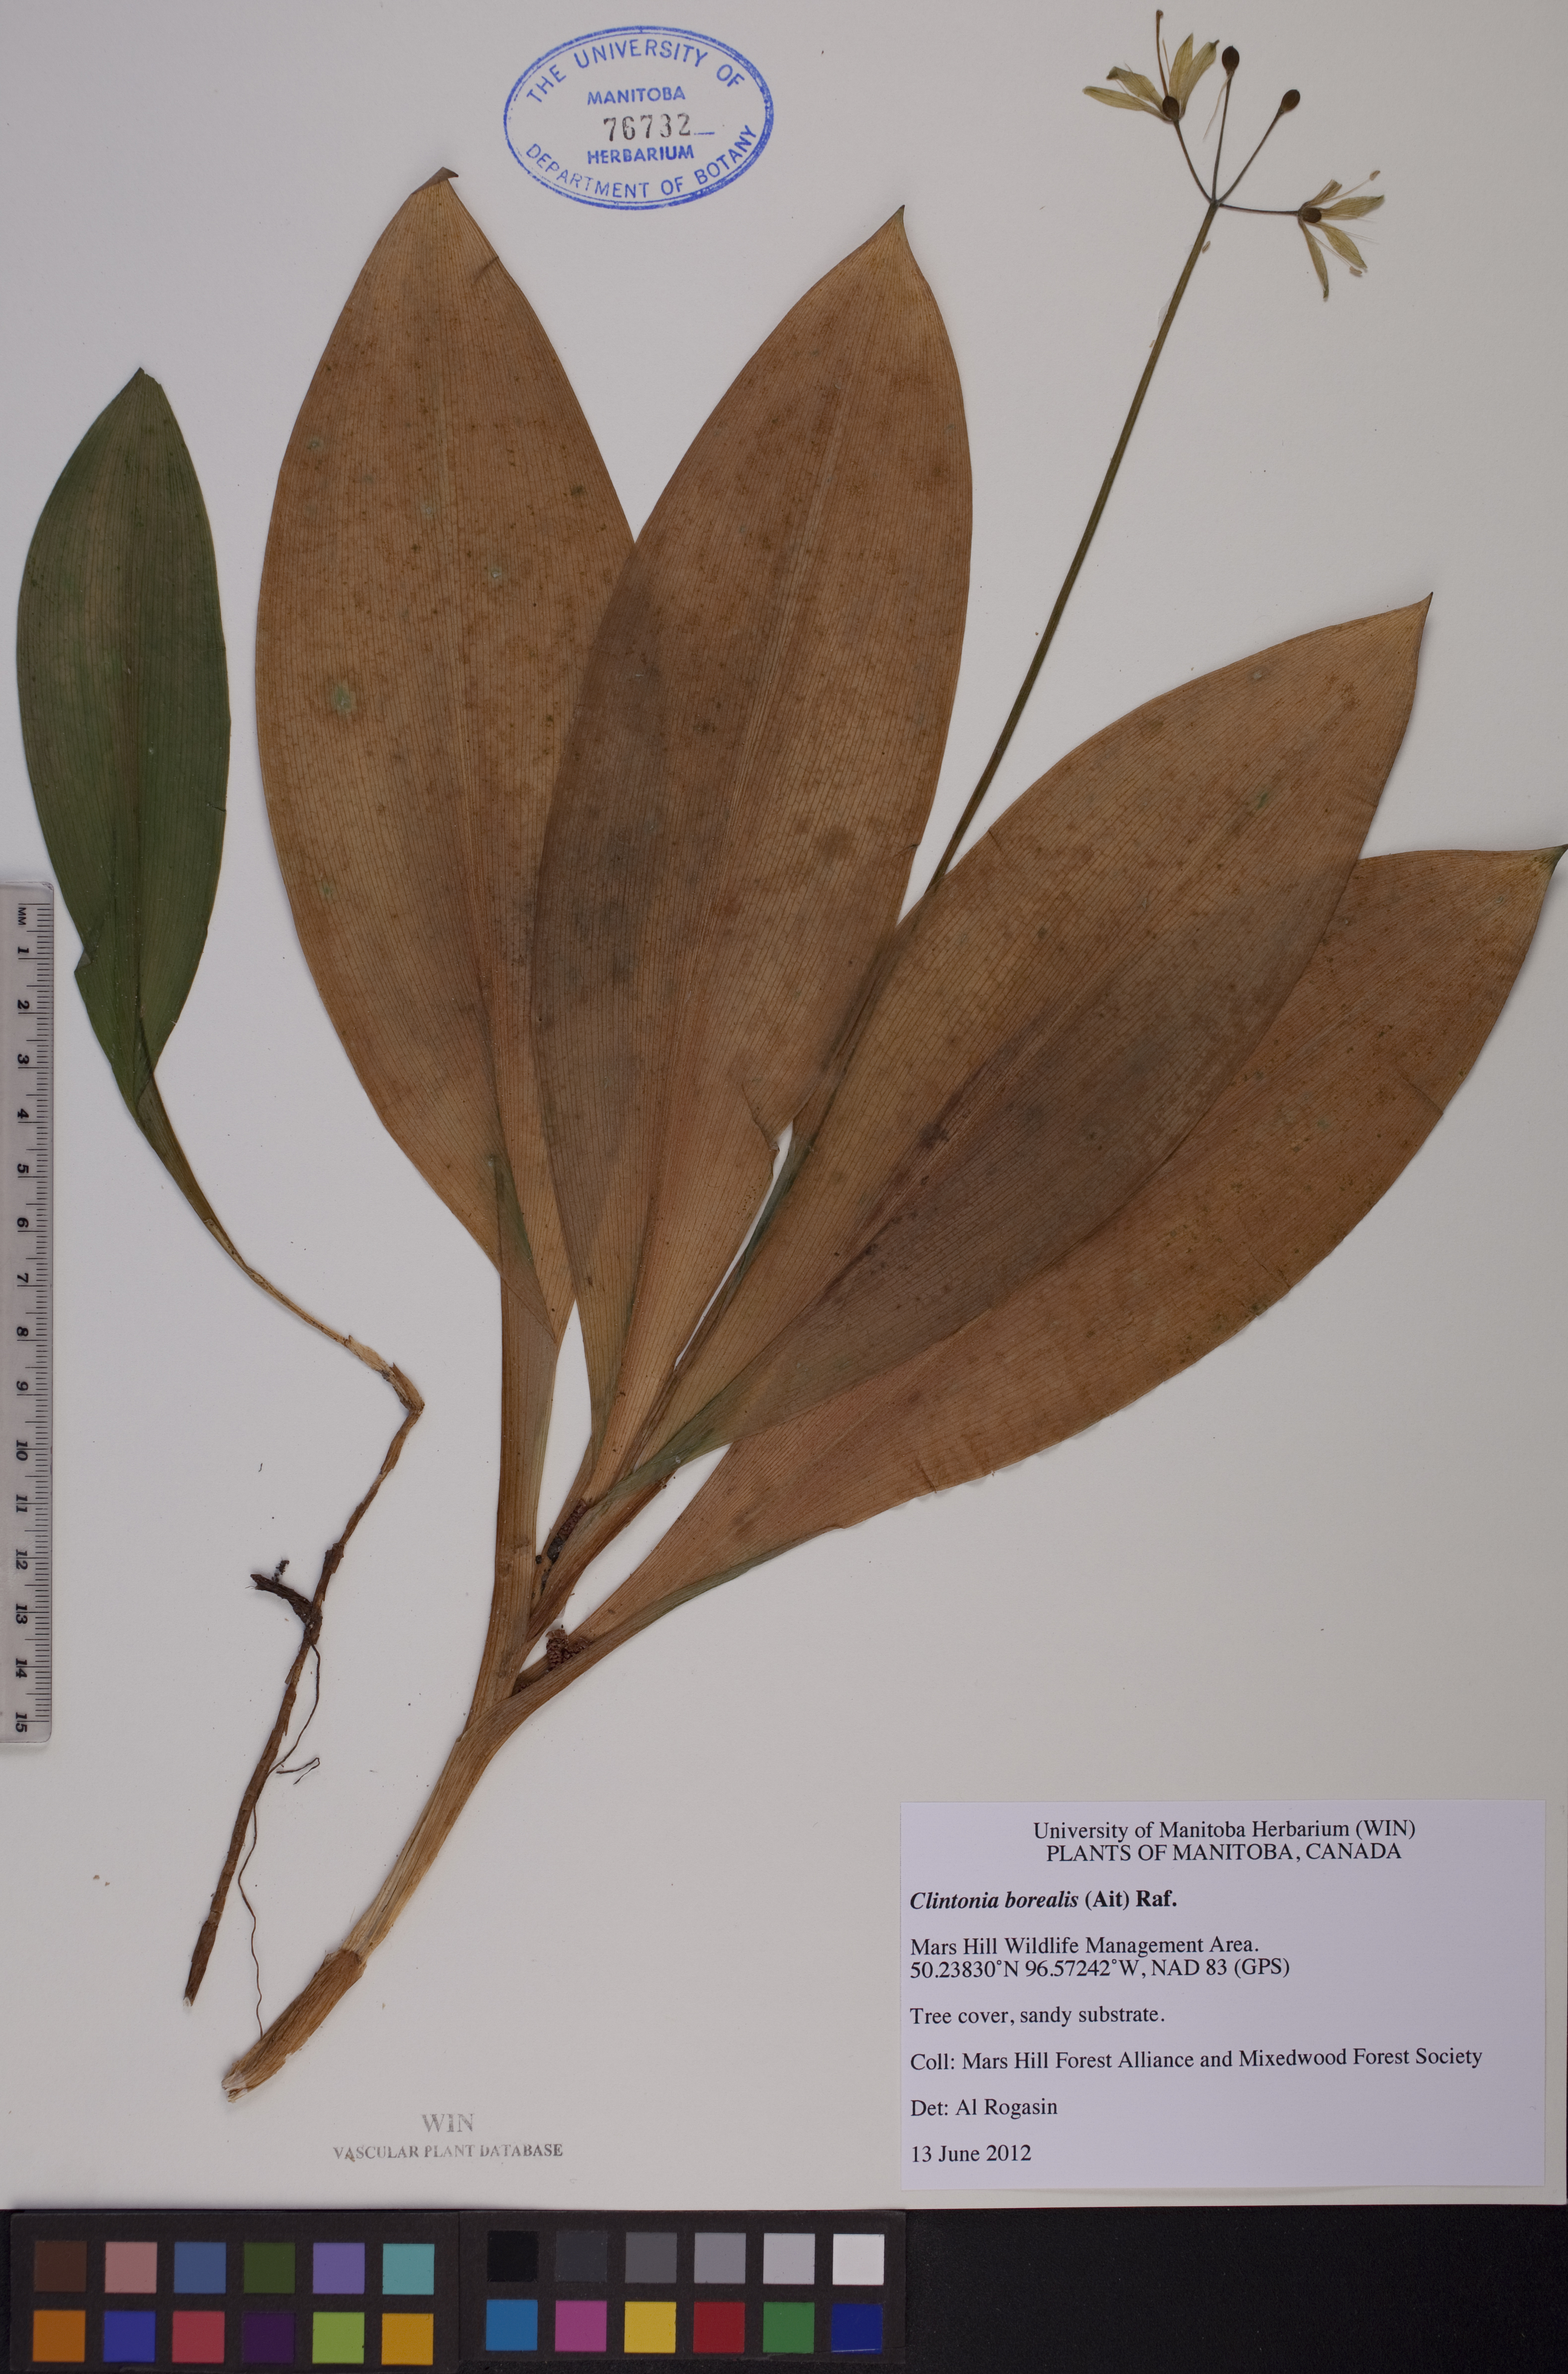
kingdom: Plantae
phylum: Tracheophyta
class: Liliopsida
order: Liliales
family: Liliaceae
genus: Clintonia
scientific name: Clintonia borealis
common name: Yellow clintonia
